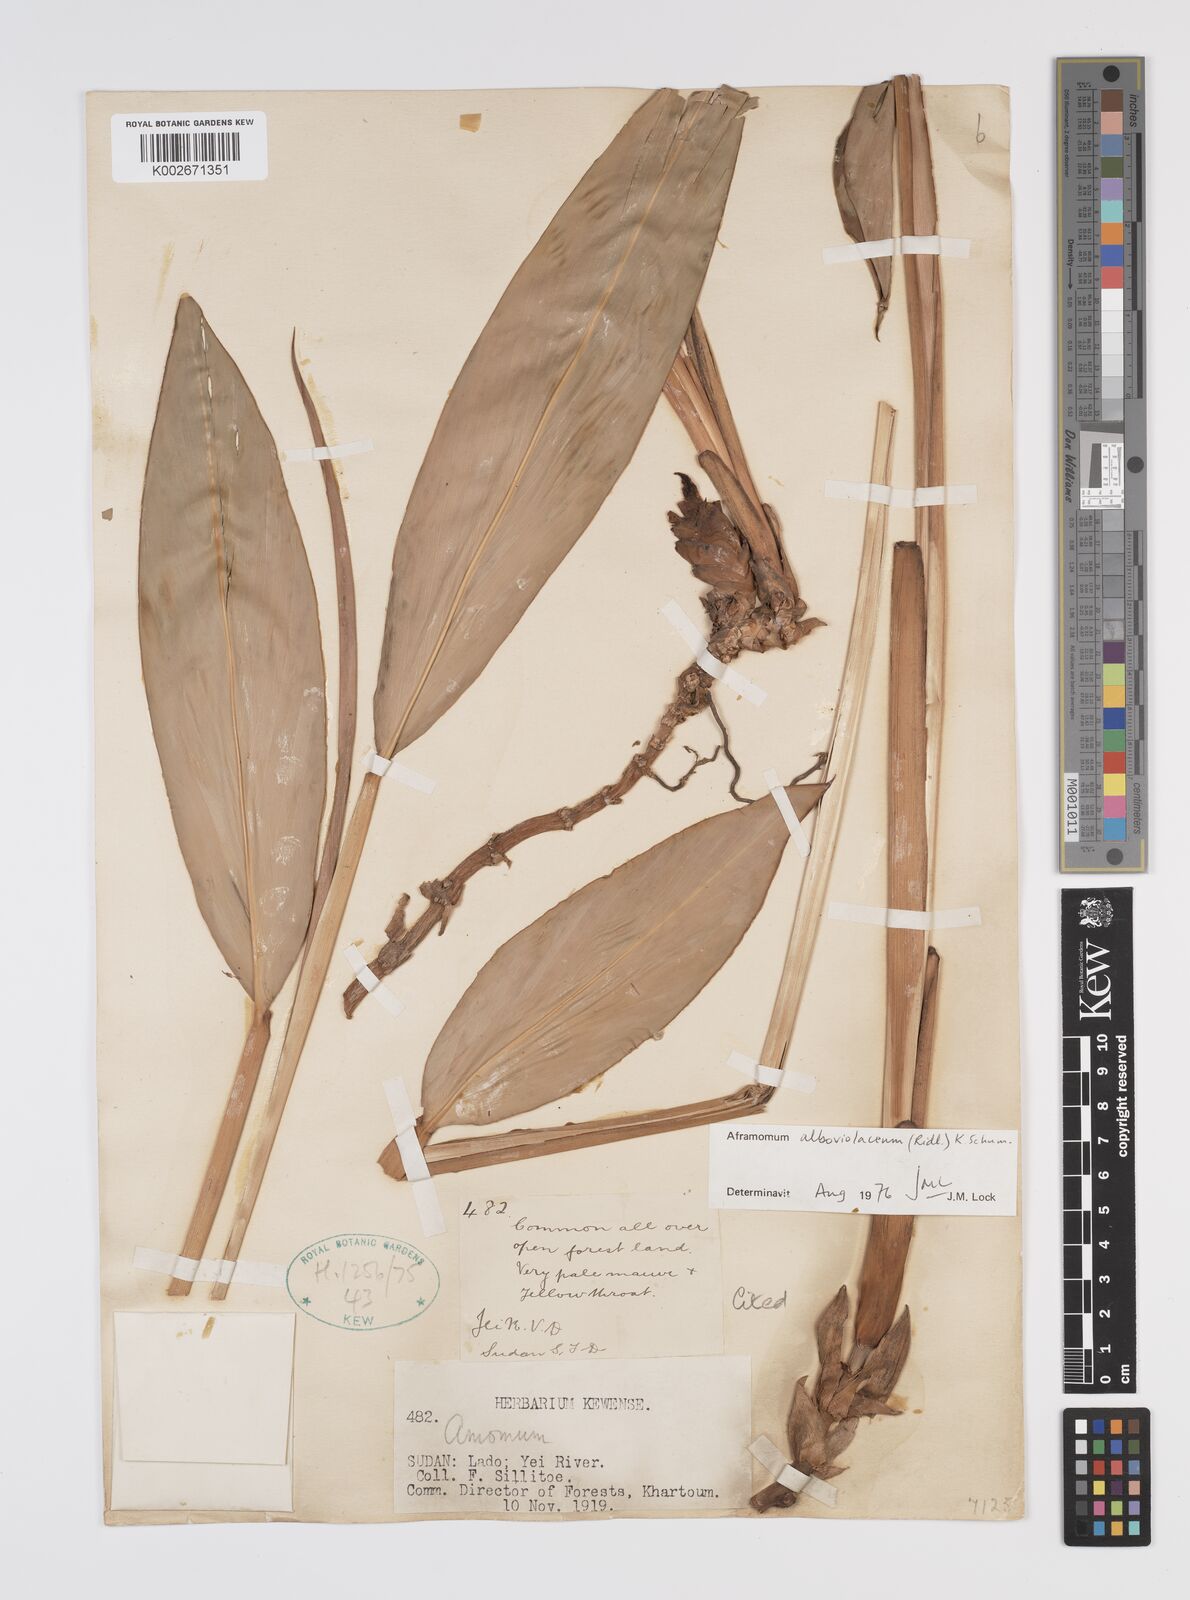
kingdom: Plantae
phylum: Tracheophyta
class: Liliopsida
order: Zingiberales
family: Zingiberaceae
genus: Aframomum
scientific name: Aframomum alboviolaceum
